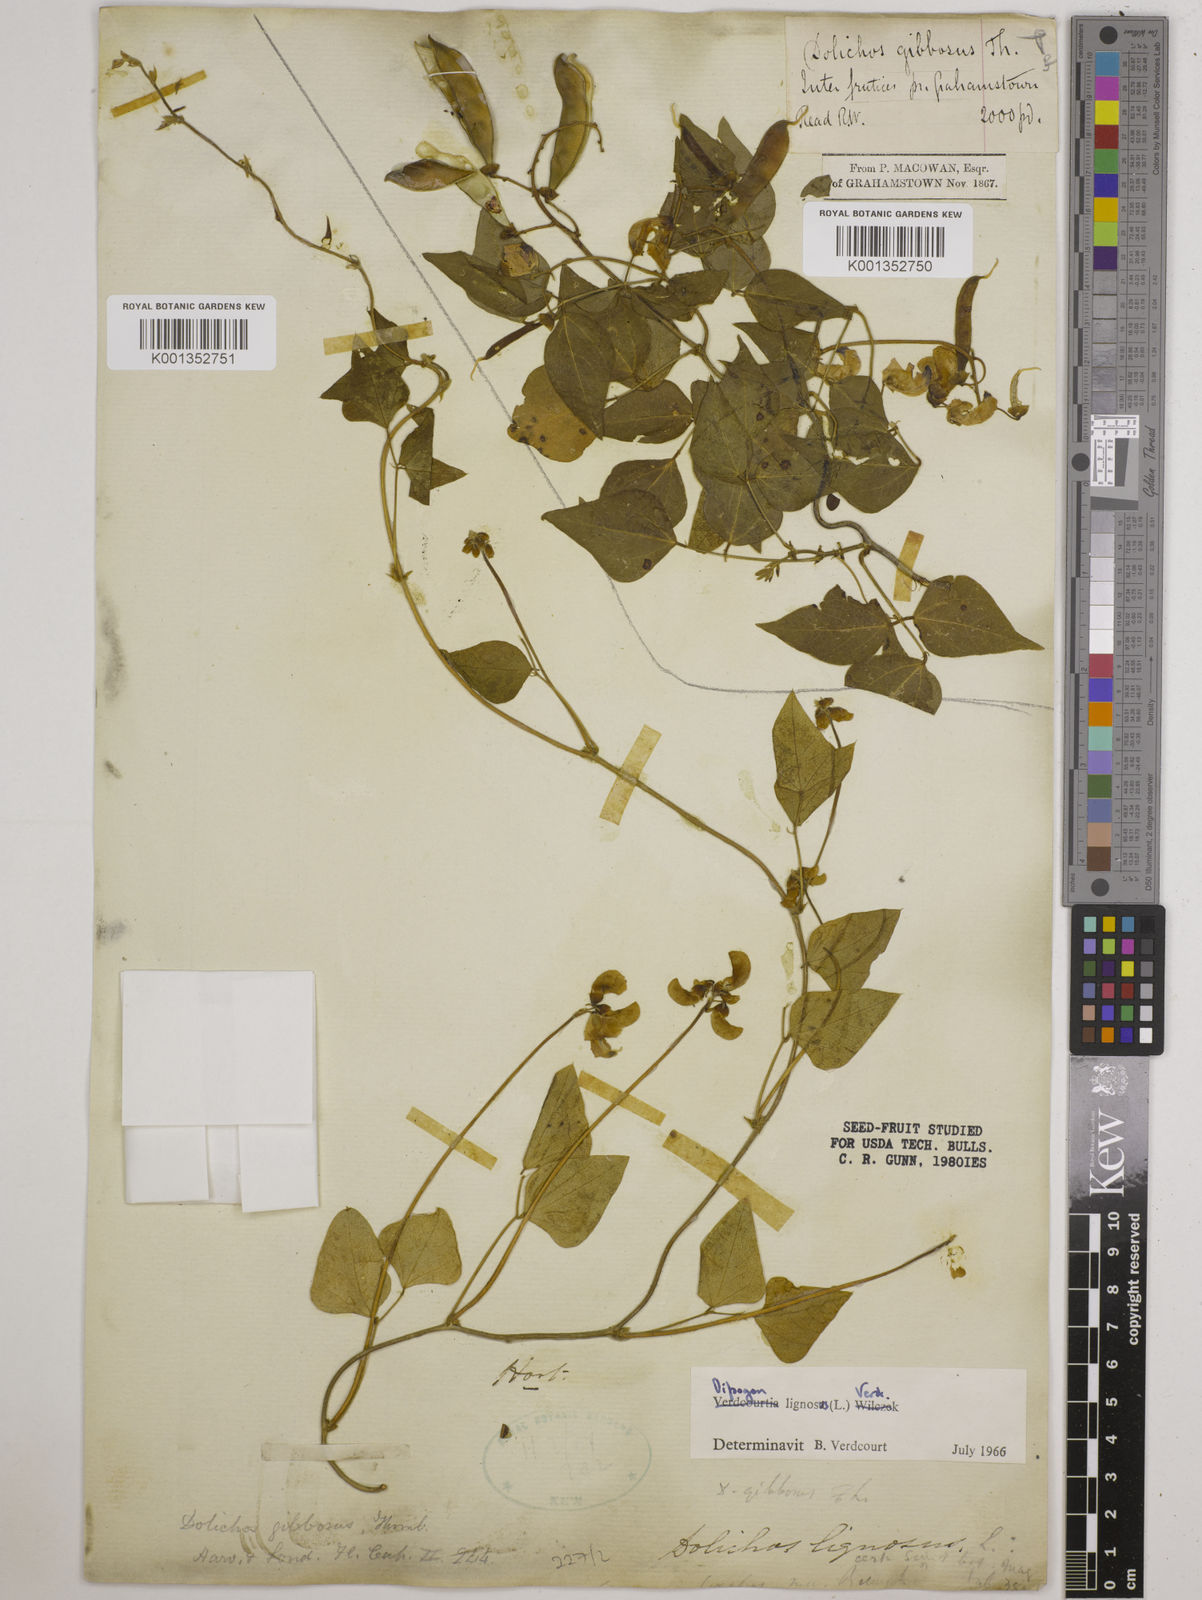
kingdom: Plantae
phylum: Tracheophyta
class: Magnoliopsida
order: Fabales
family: Fabaceae
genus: Dipogon
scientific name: Dipogon lignosus
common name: Okie bean
